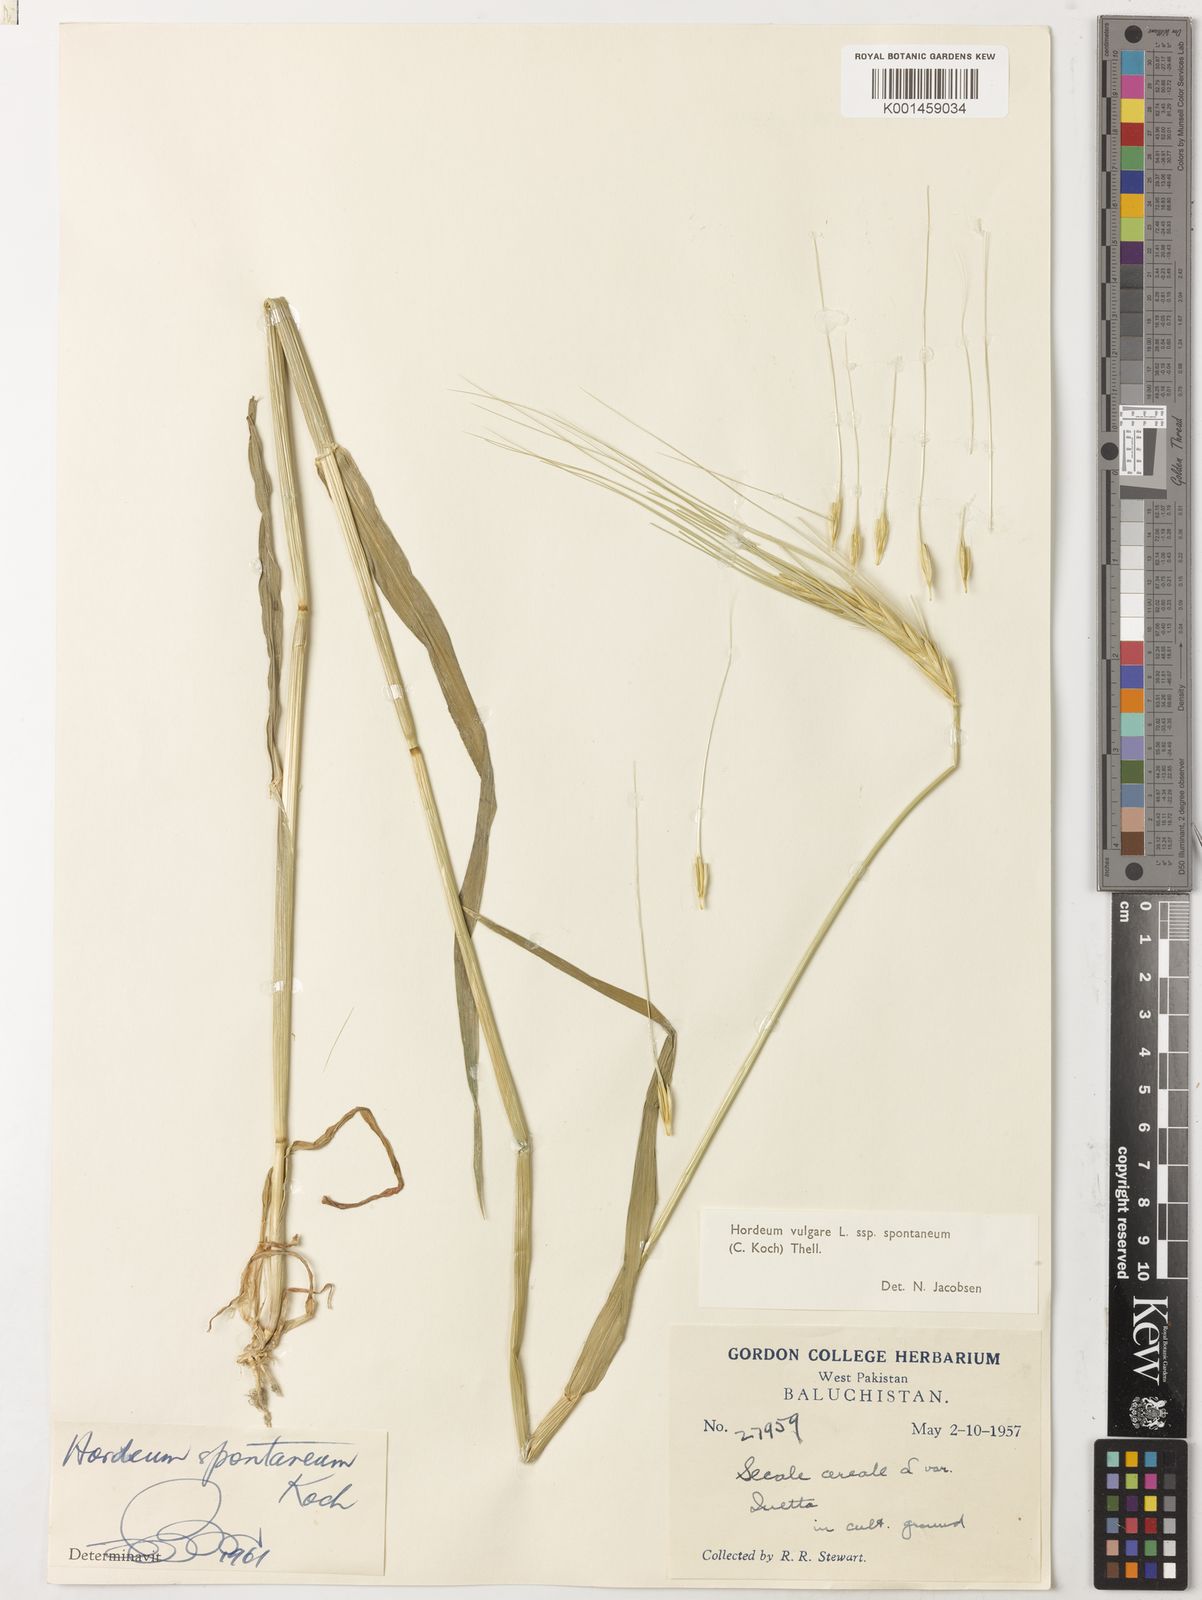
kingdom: Plantae
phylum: Tracheophyta
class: Liliopsida
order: Poales
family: Poaceae
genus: Hordeum
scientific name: Hordeum spontaneum
